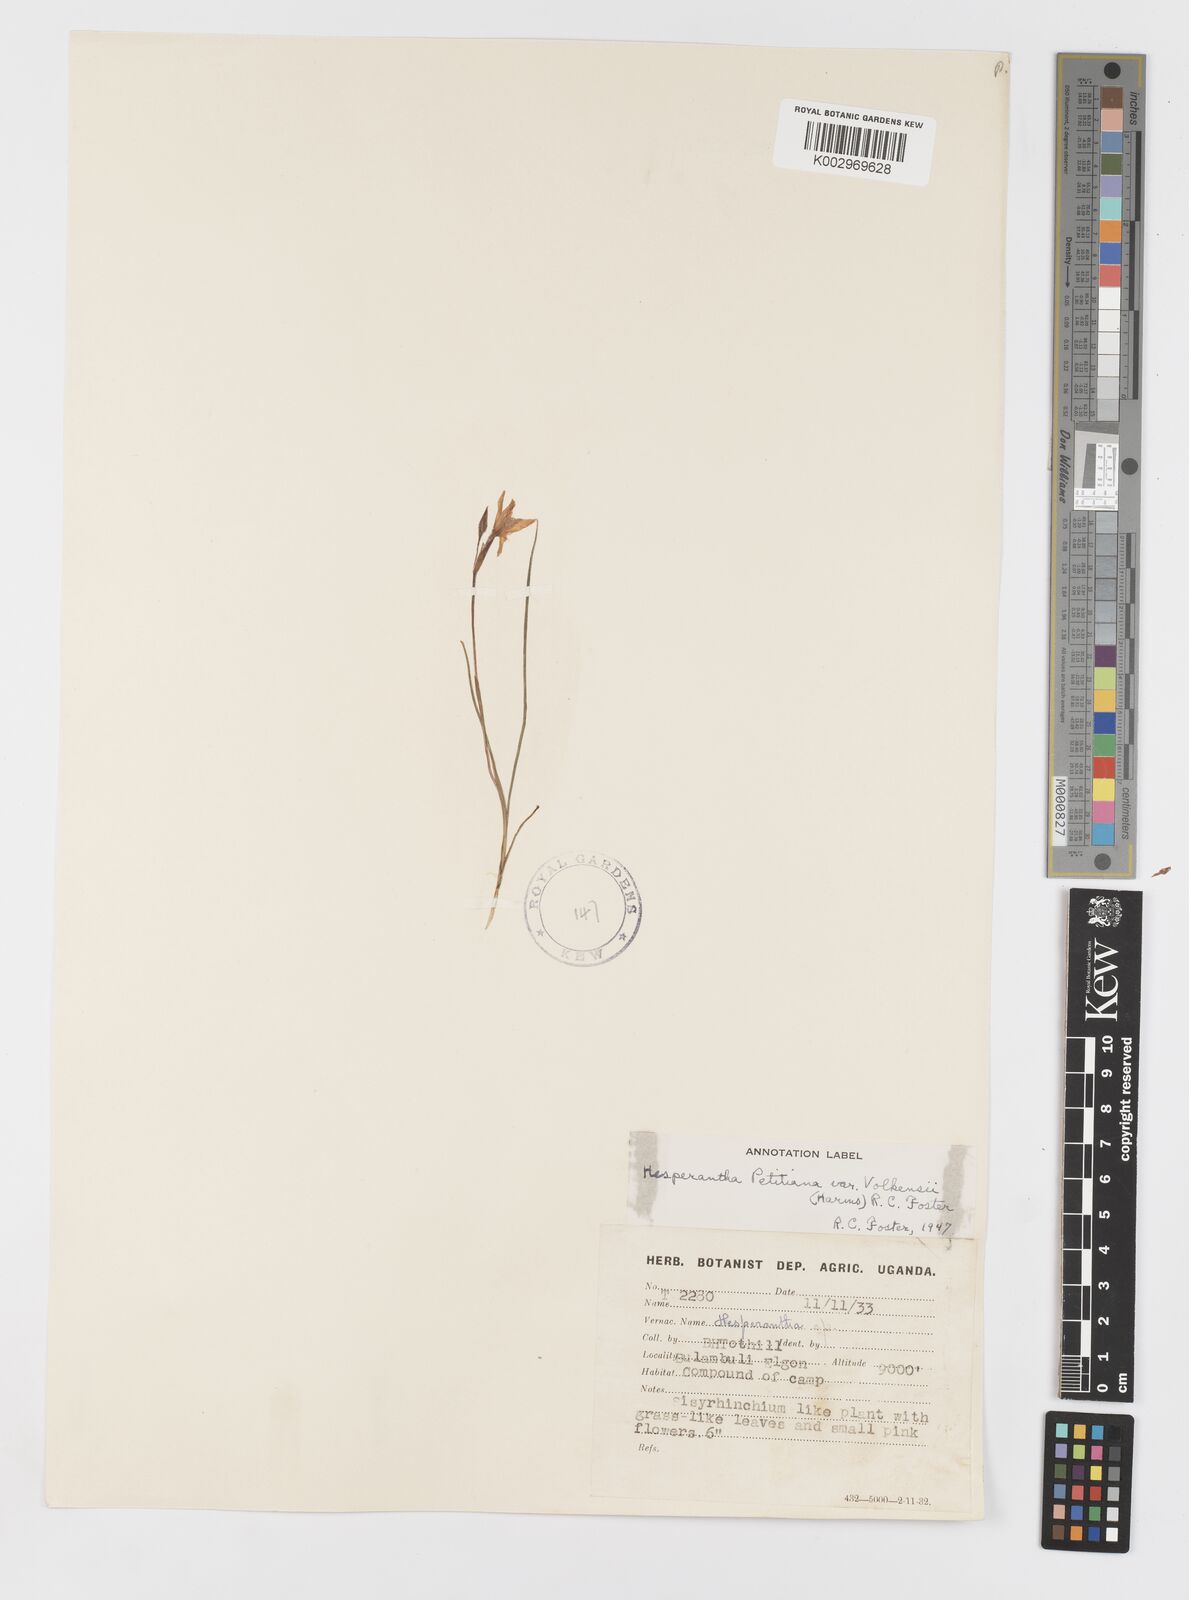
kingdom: Plantae
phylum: Tracheophyta
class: Liliopsida
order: Asparagales
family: Iridaceae
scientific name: Iridaceae
